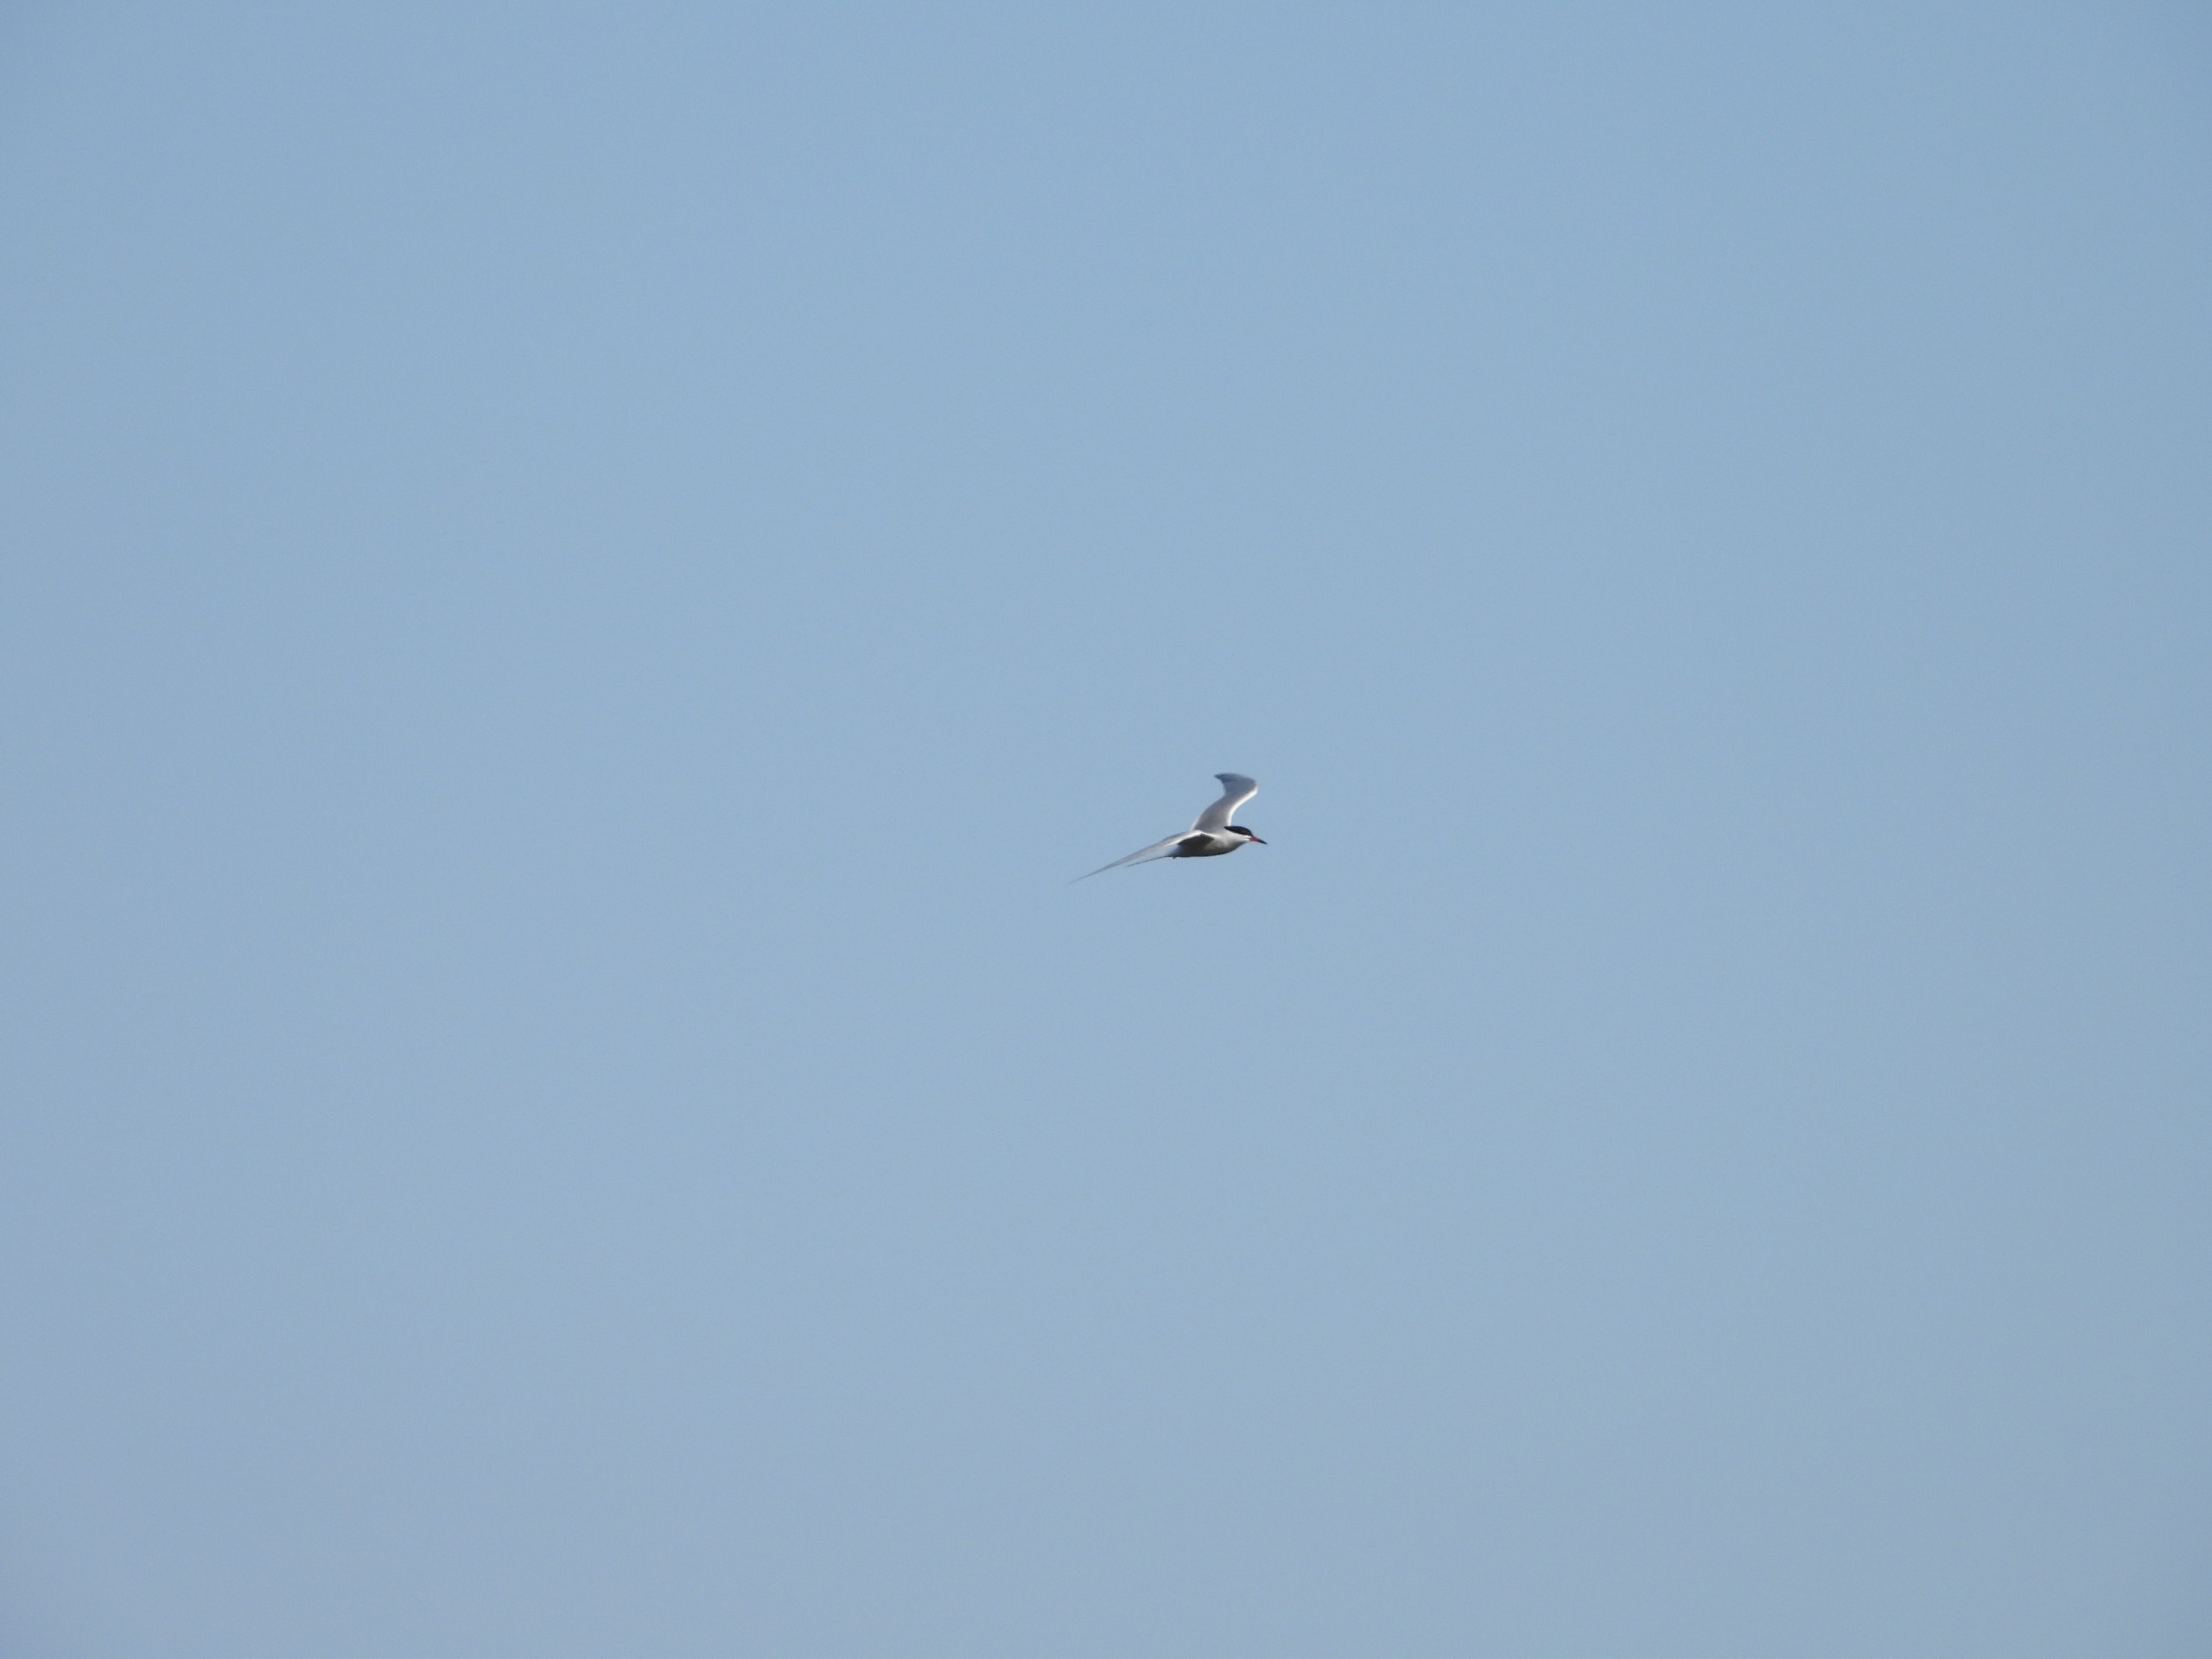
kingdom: Animalia
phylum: Chordata
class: Aves
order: Charadriiformes
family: Laridae
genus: Sterna
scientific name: Sterna hirundo
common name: Fjordterne
